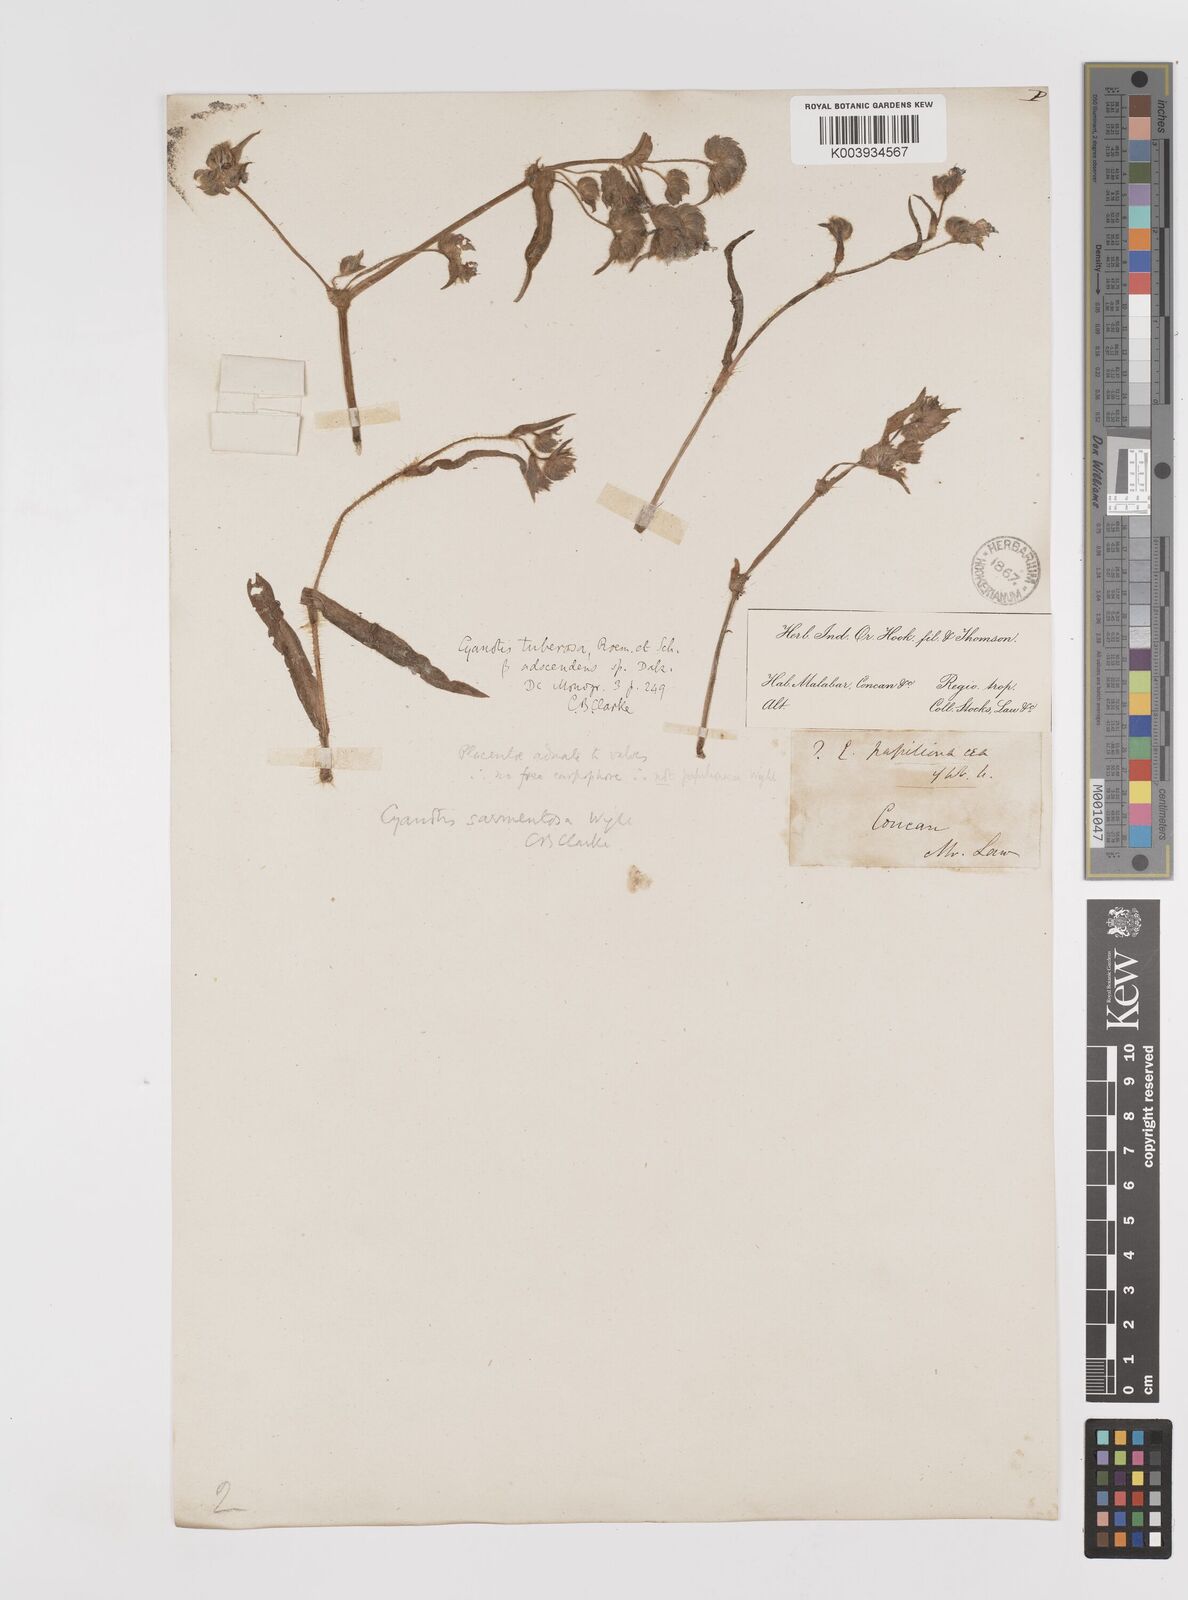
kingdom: Plantae
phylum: Tracheophyta
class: Liliopsida
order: Commelinales
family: Commelinaceae
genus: Cyanotis
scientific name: Cyanotis tuberosa
